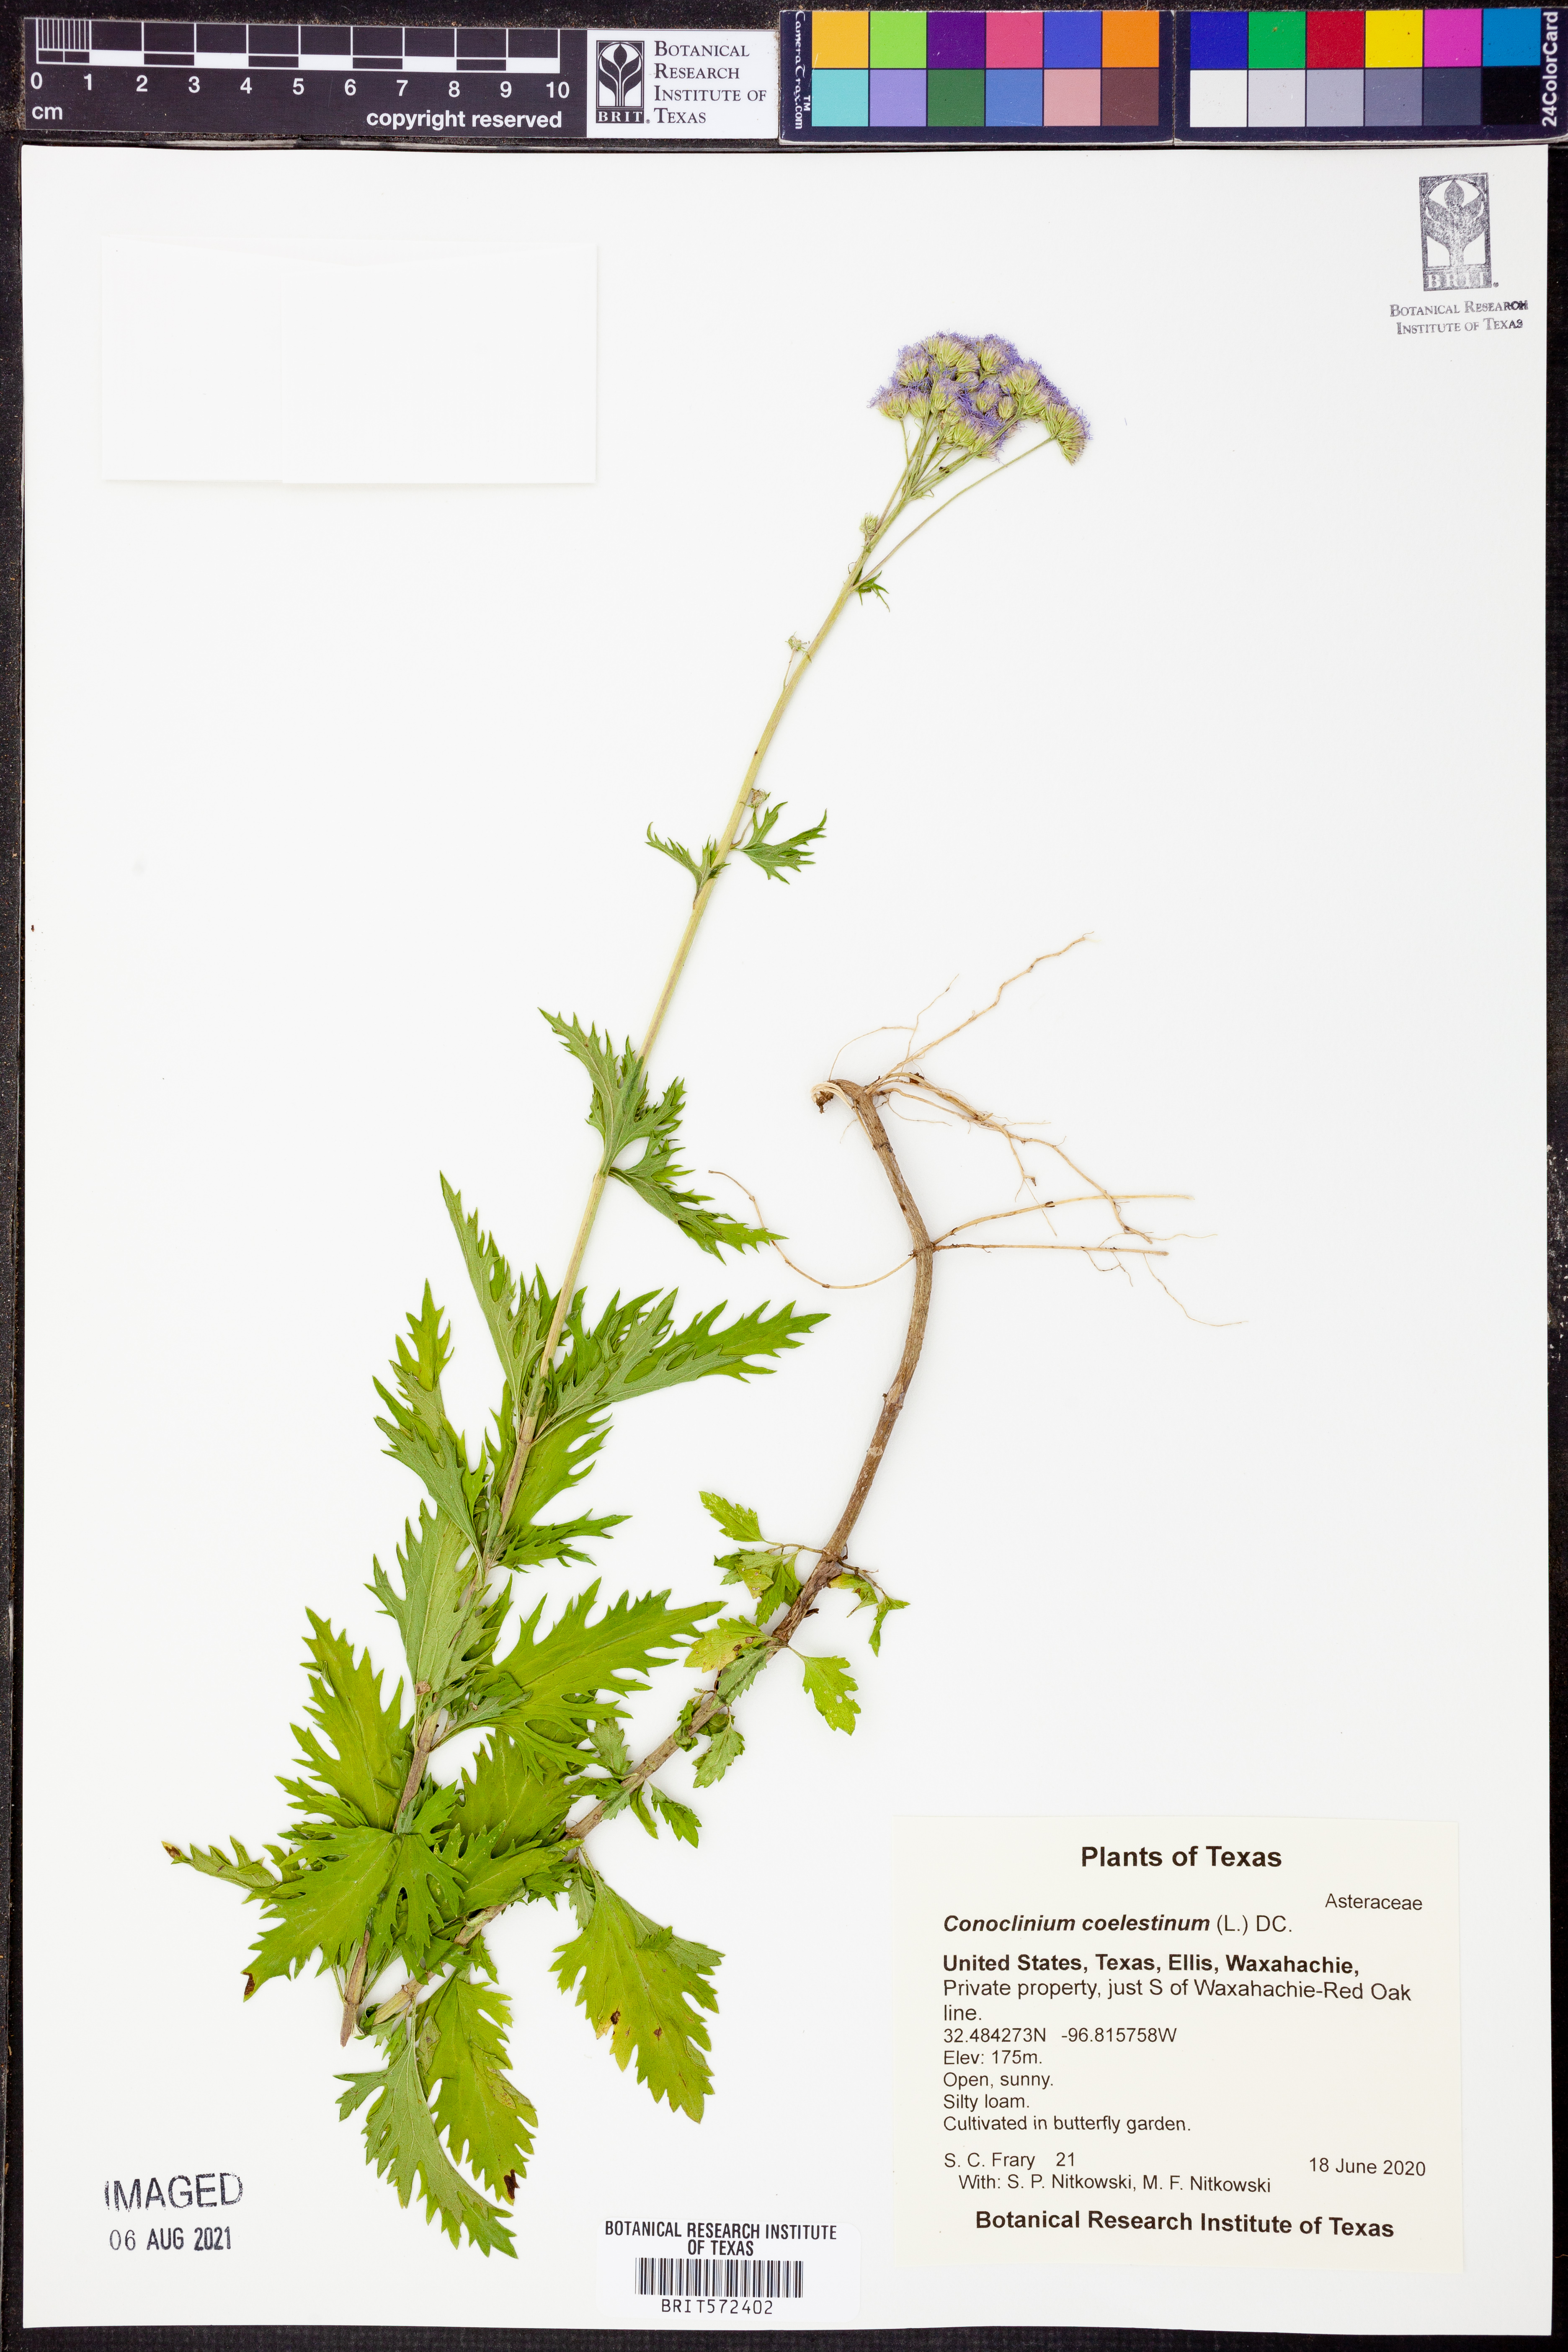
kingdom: Plantae
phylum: Tracheophyta
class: Magnoliopsida
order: Asterales
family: Asteraceae
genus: Conoclinium
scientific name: Conoclinium coelestinum
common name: Blue mistflower
